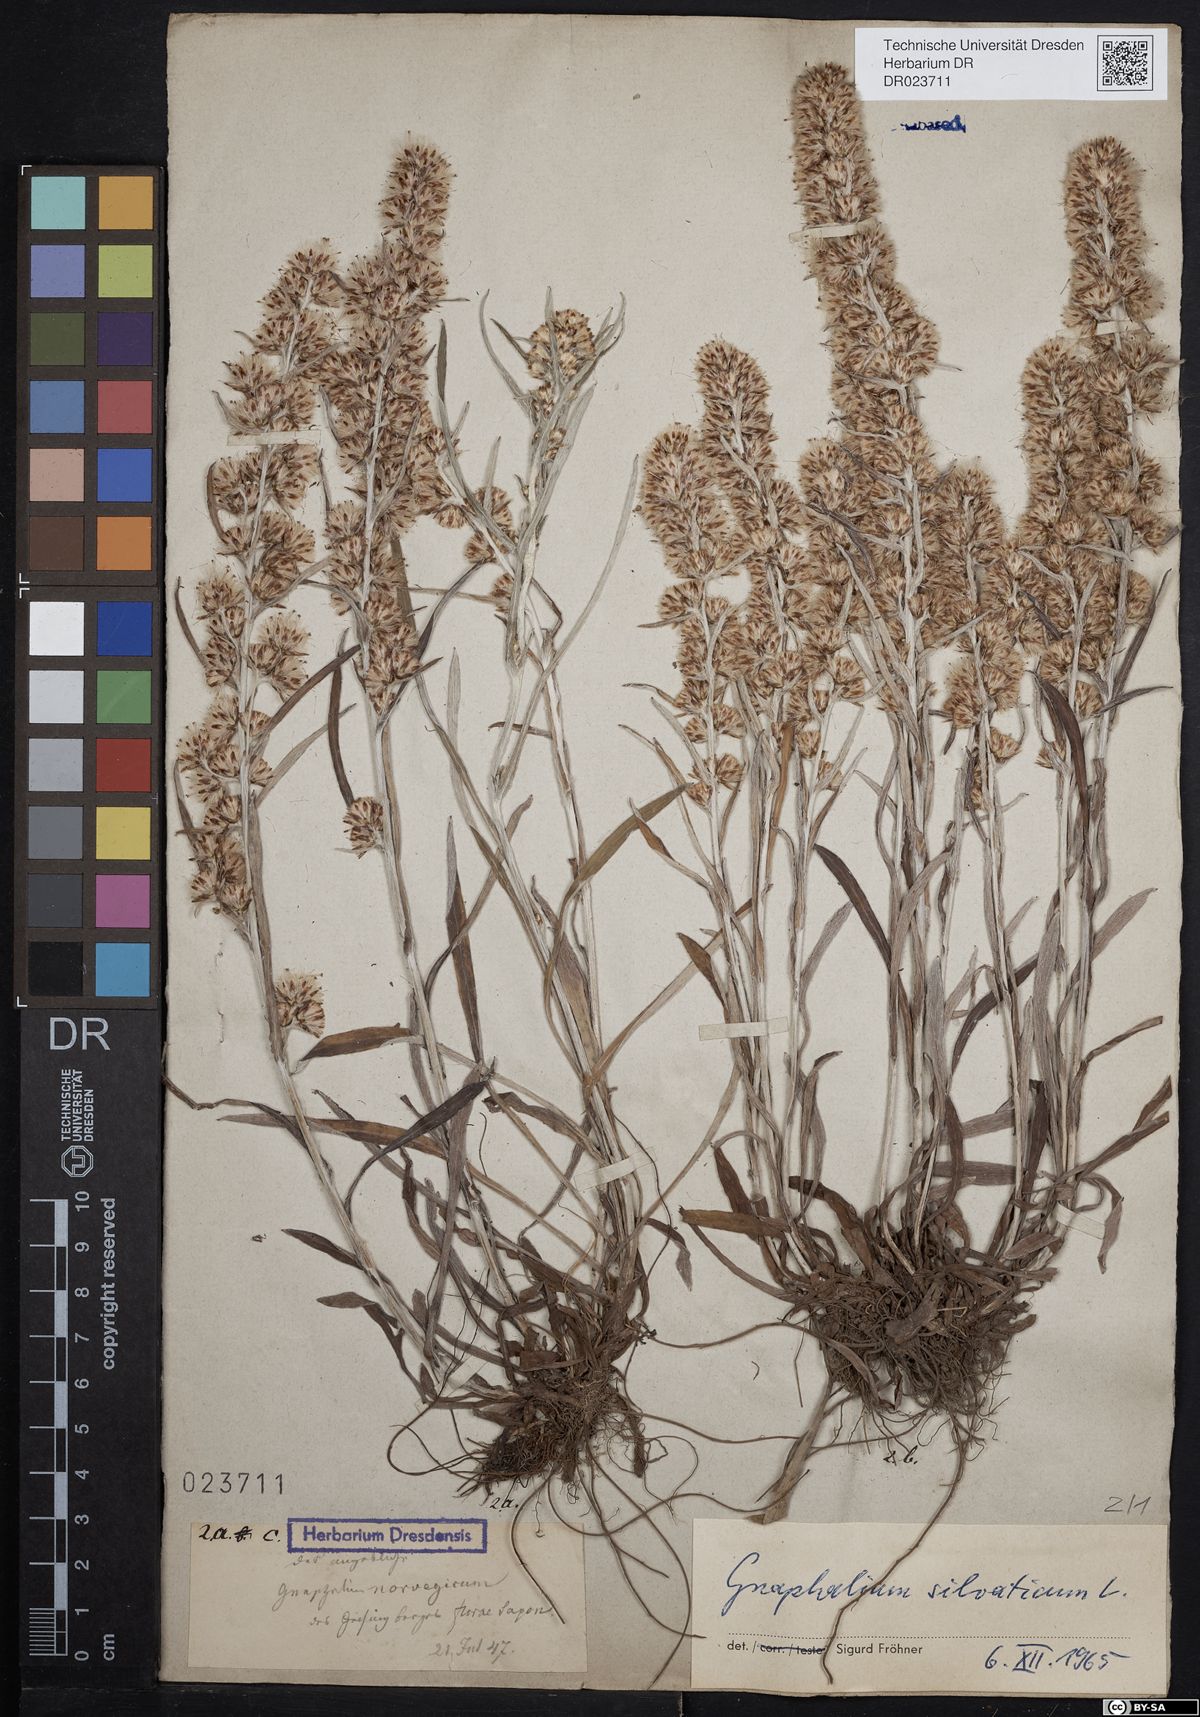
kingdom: Plantae
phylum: Tracheophyta
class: Magnoliopsida
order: Asterales
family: Asteraceae
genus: Omalotheca
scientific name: Omalotheca sylvatica
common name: Heath cudweed
